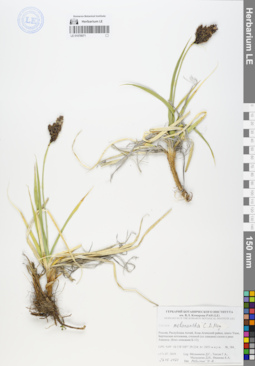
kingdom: Plantae
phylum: Tracheophyta
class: Liliopsida
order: Poales
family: Cyperaceae
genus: Carex
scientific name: Carex melanantha
